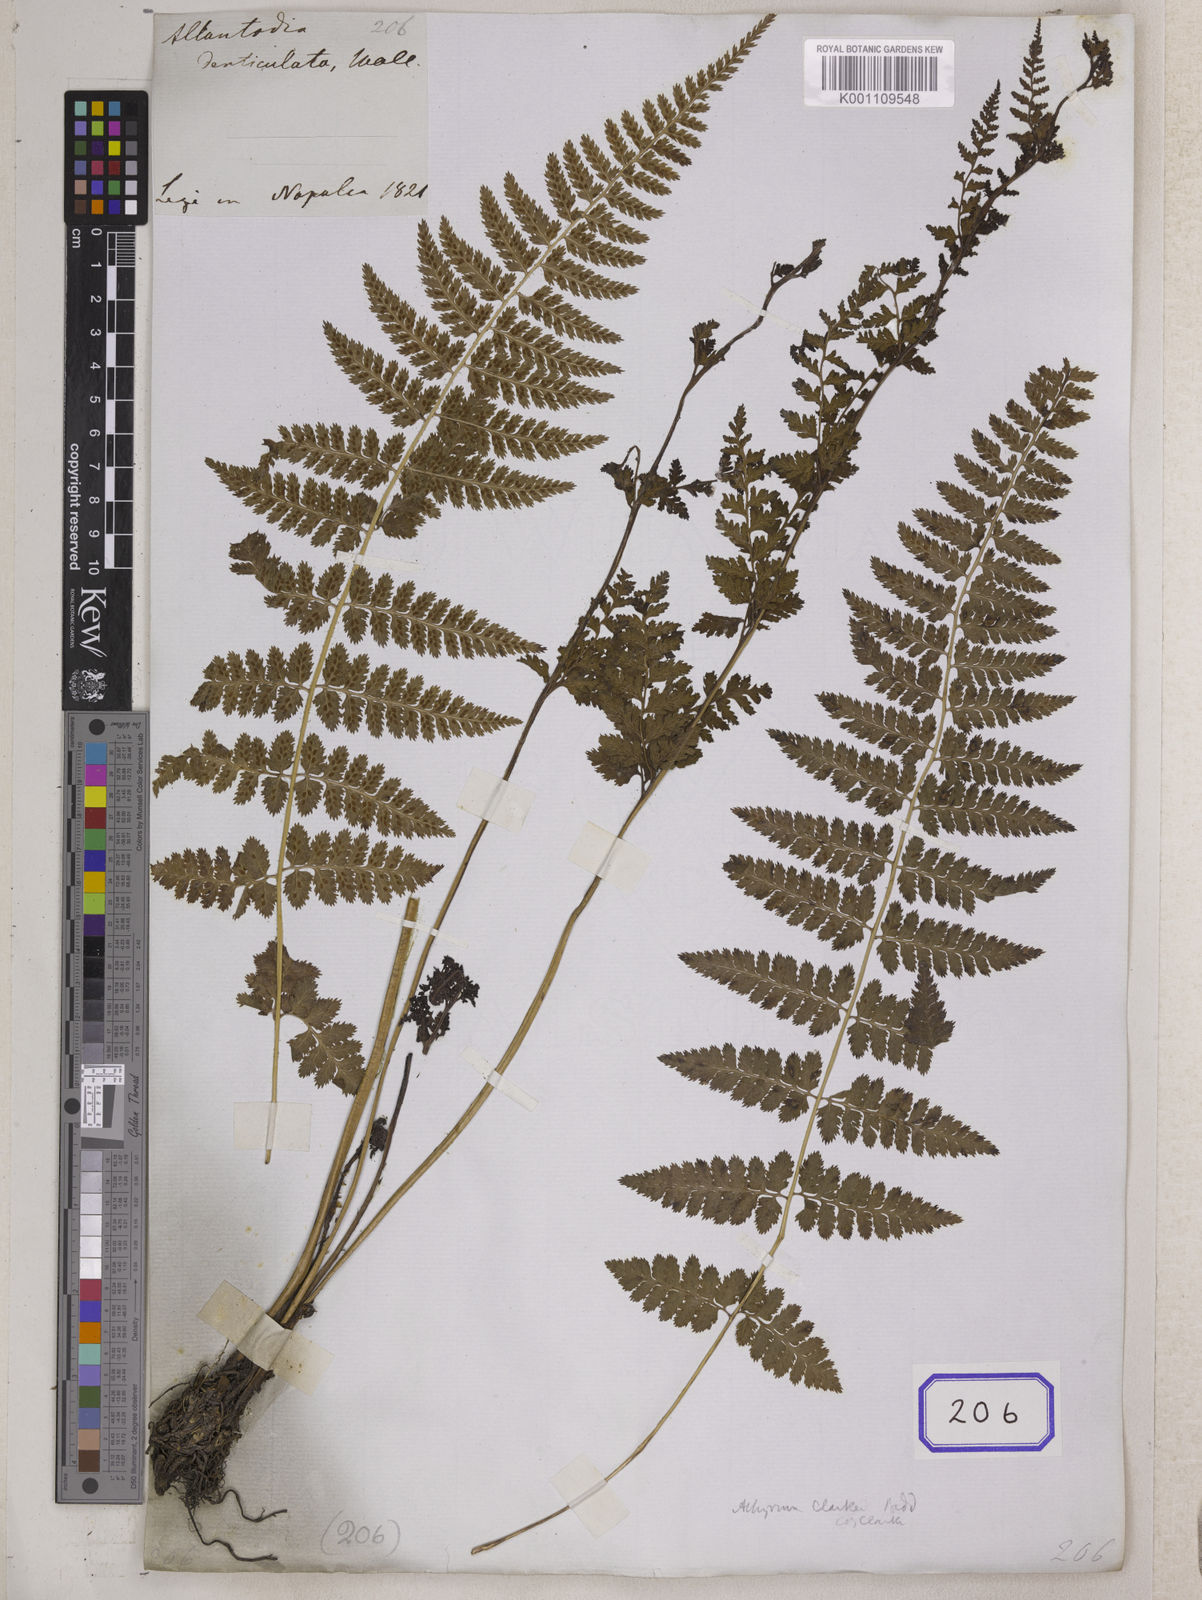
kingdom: Plantae
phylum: Tracheophyta
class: Polypodiopsida
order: Polypodiales
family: Athyriaceae
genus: Athyrium
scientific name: Athyrium strigillosum
